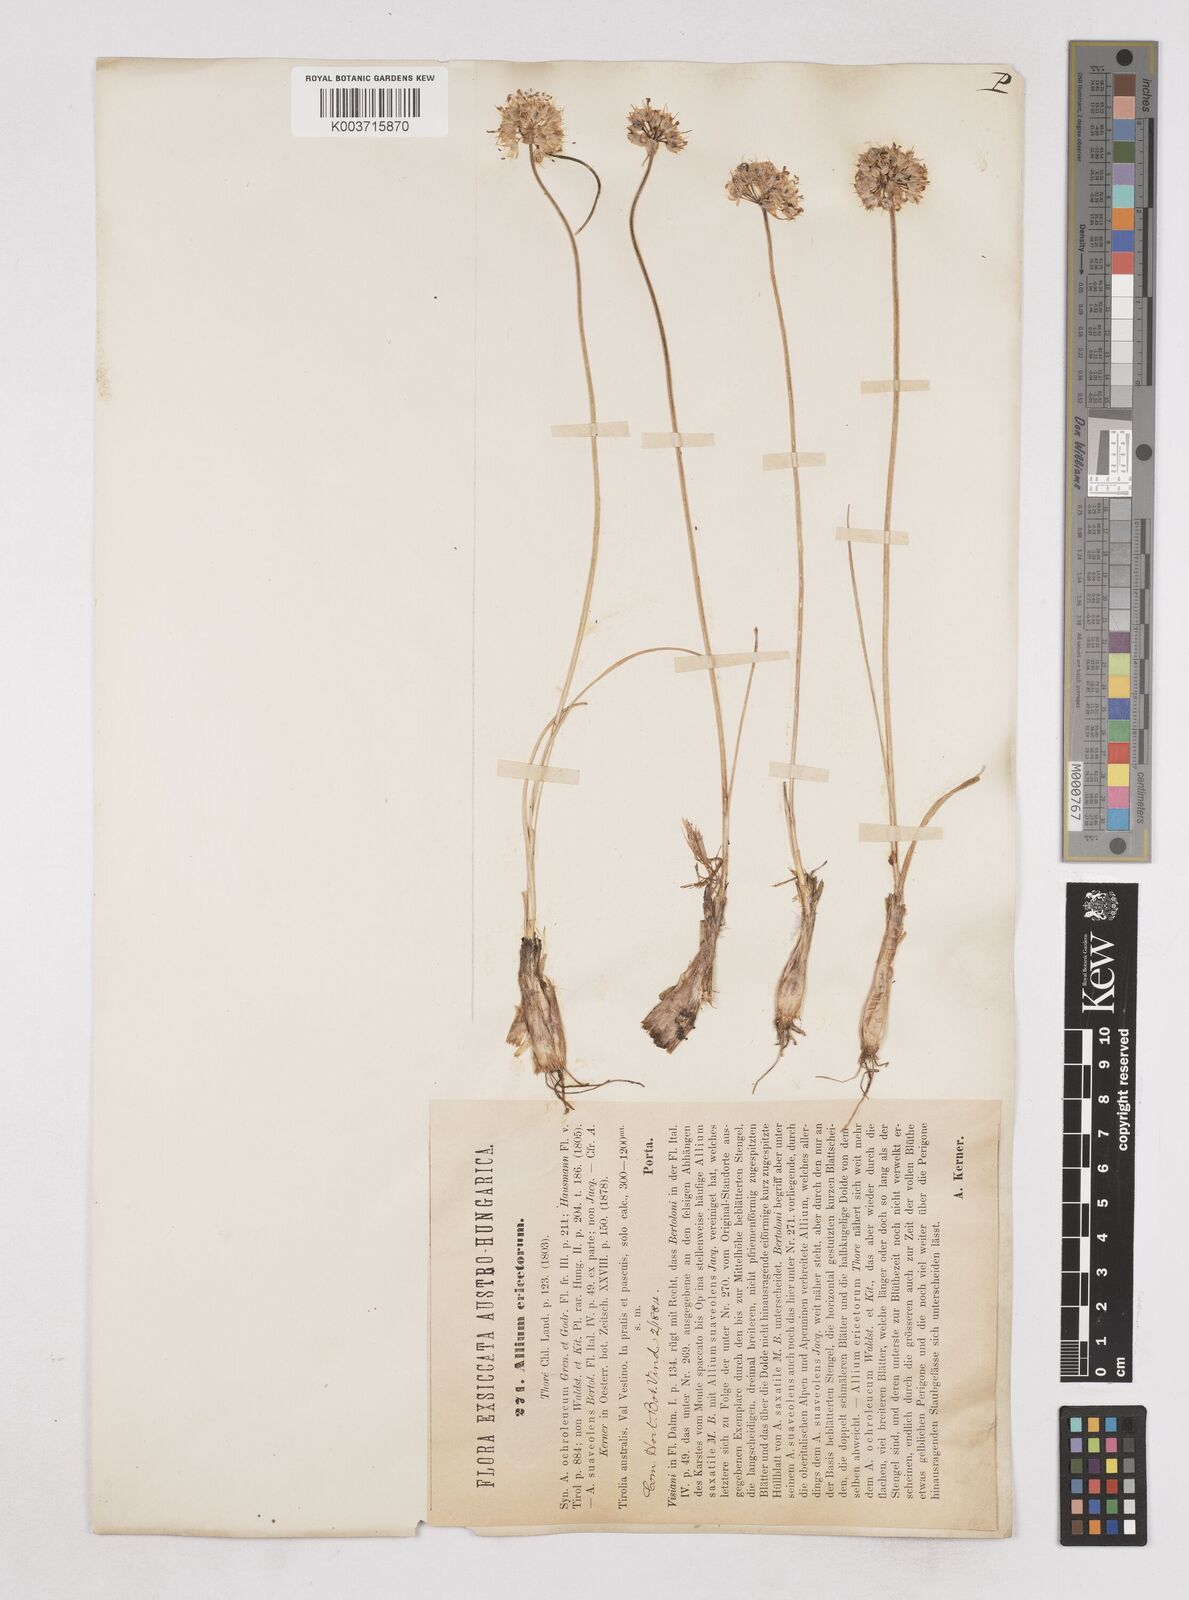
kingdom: Plantae
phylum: Tracheophyta
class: Liliopsida
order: Asparagales
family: Amaryllidaceae
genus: Allium
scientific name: Allium ericetorum
